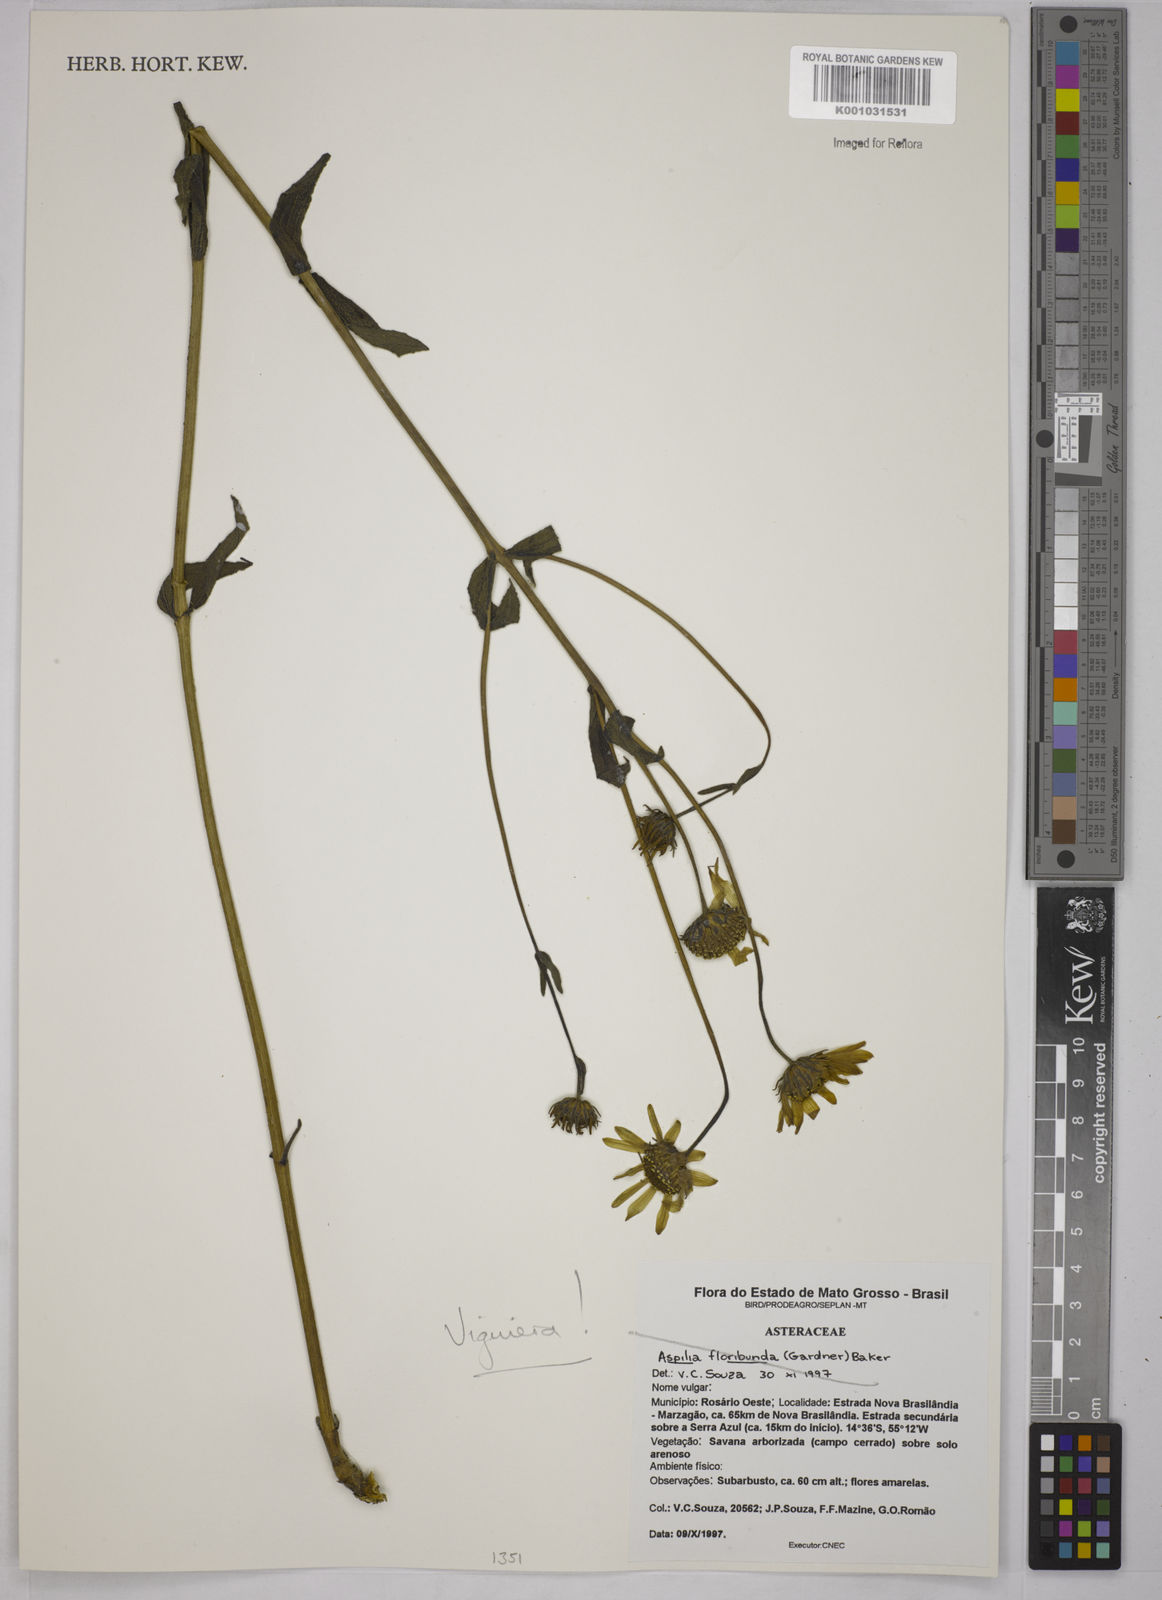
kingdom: Plantae
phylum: Tracheophyta
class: Magnoliopsida
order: Asterales
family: Asteraceae
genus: Viguiera
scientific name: Viguiera
